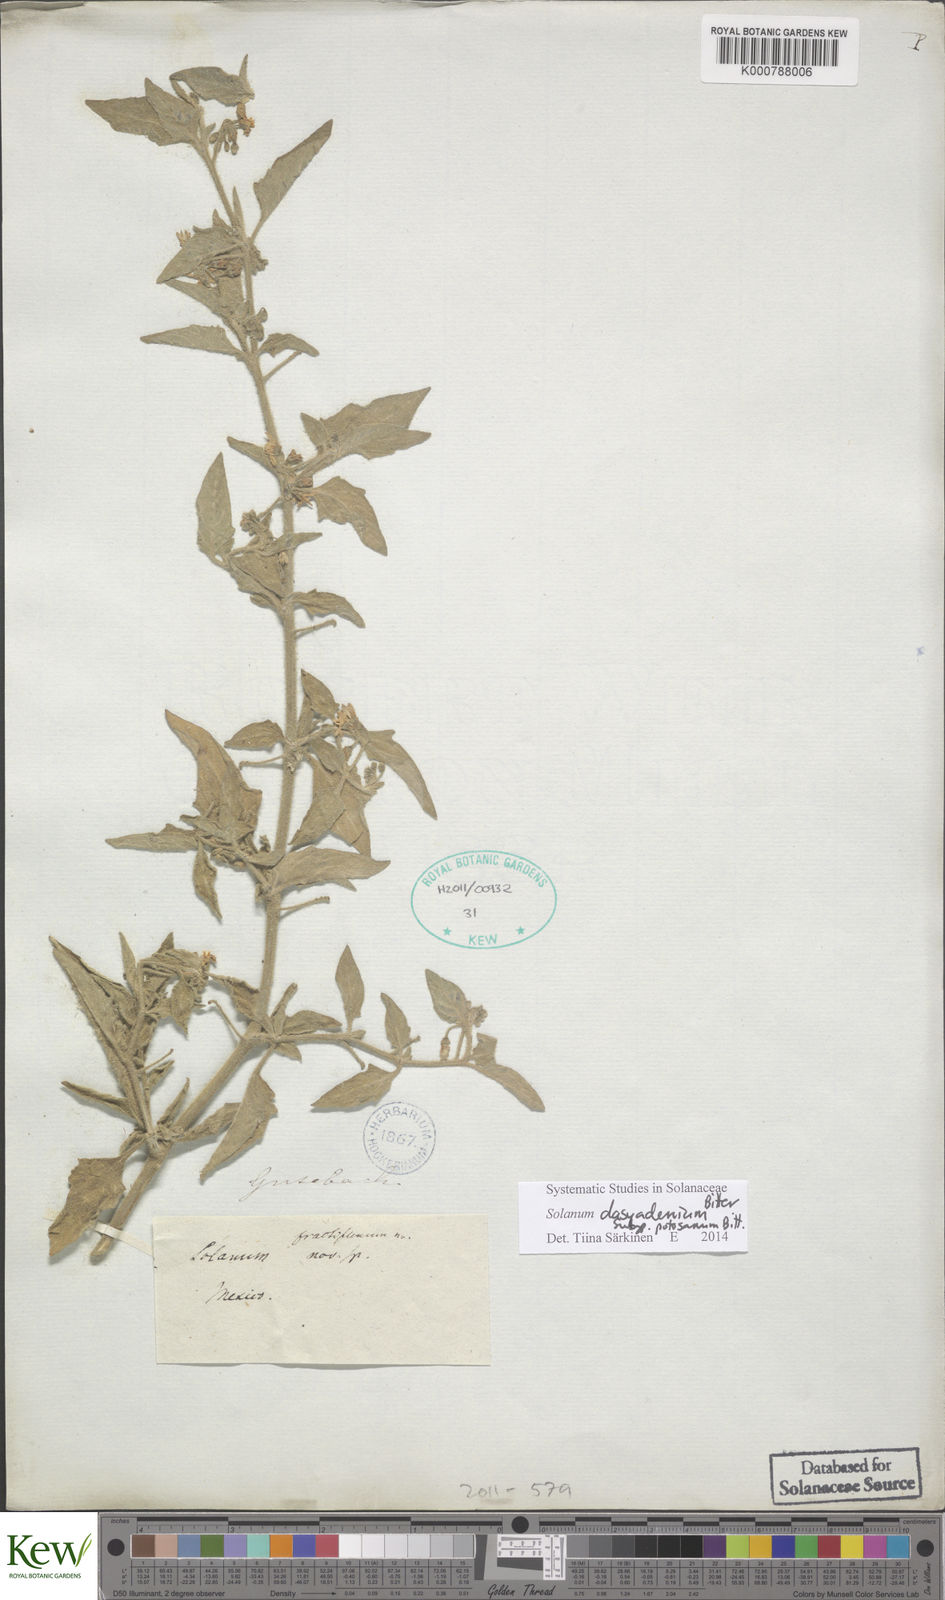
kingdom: Plantae
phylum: Tracheophyta
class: Magnoliopsida
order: Solanales
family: Solanaceae
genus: Solanum
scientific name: Solanum douglasii
